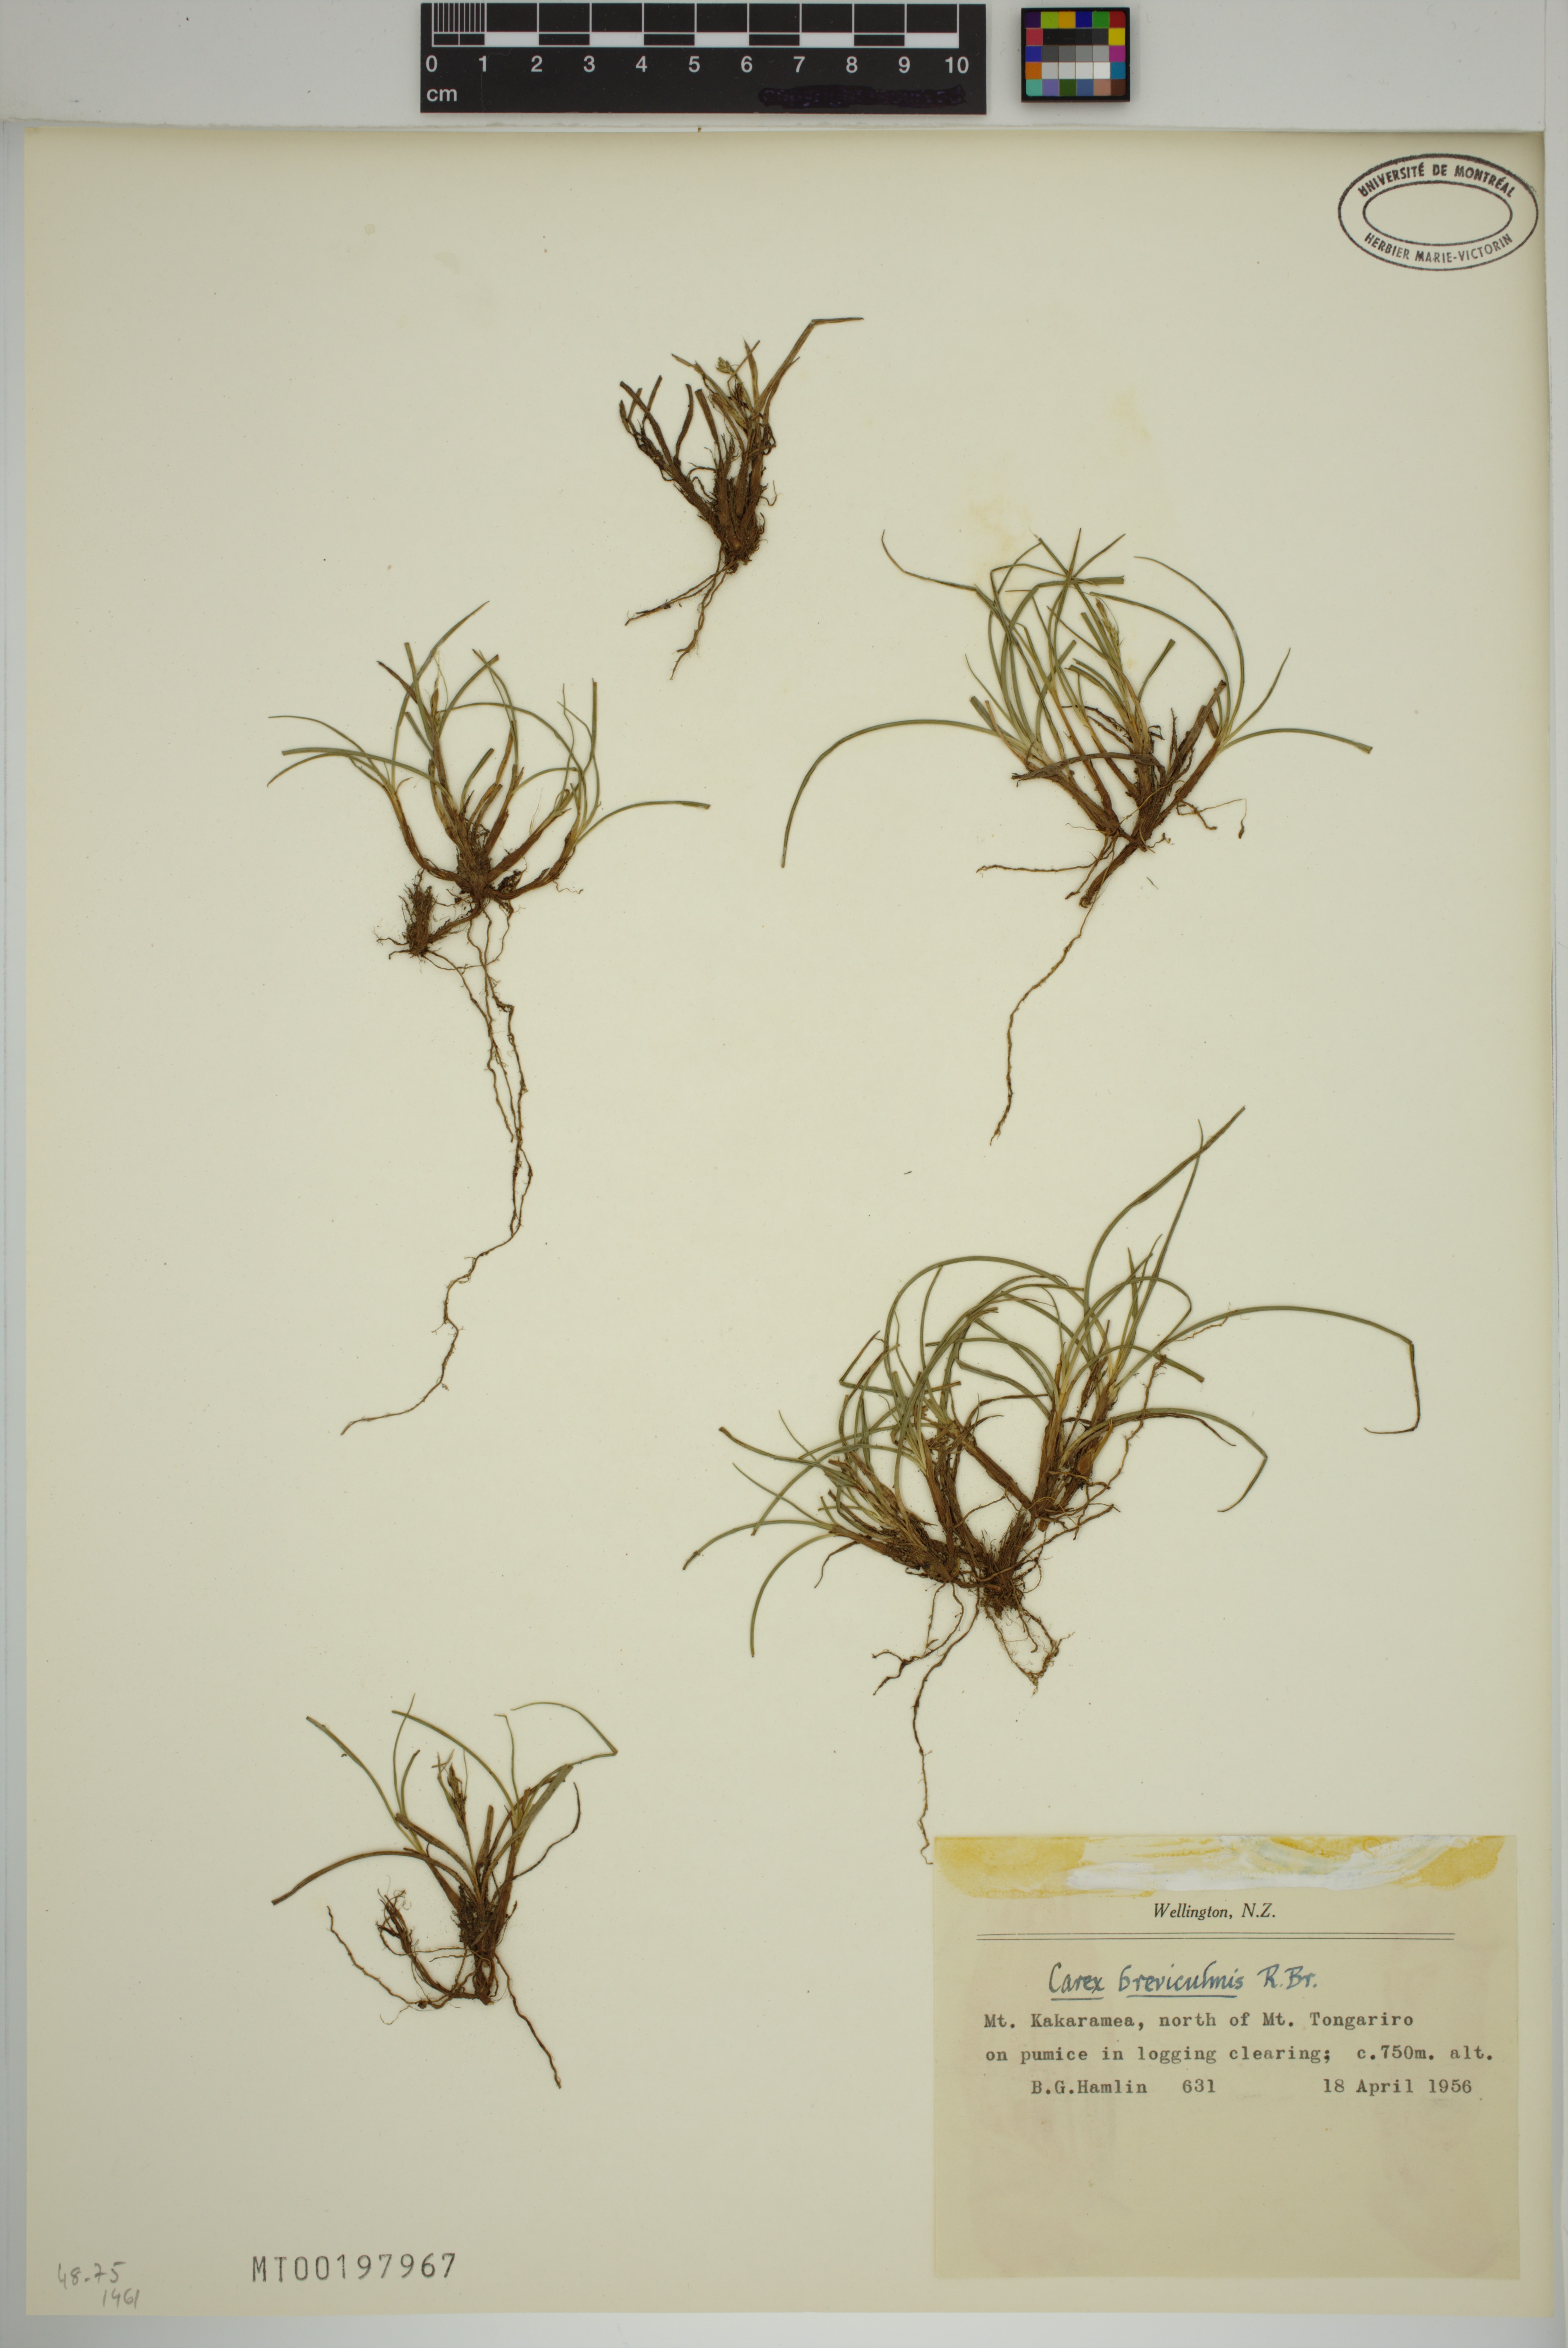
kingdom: Plantae
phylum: Tracheophyta
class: Liliopsida
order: Poales
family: Cyperaceae
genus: Carex
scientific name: Carex breviculmis
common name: Asian shortstem sedge
